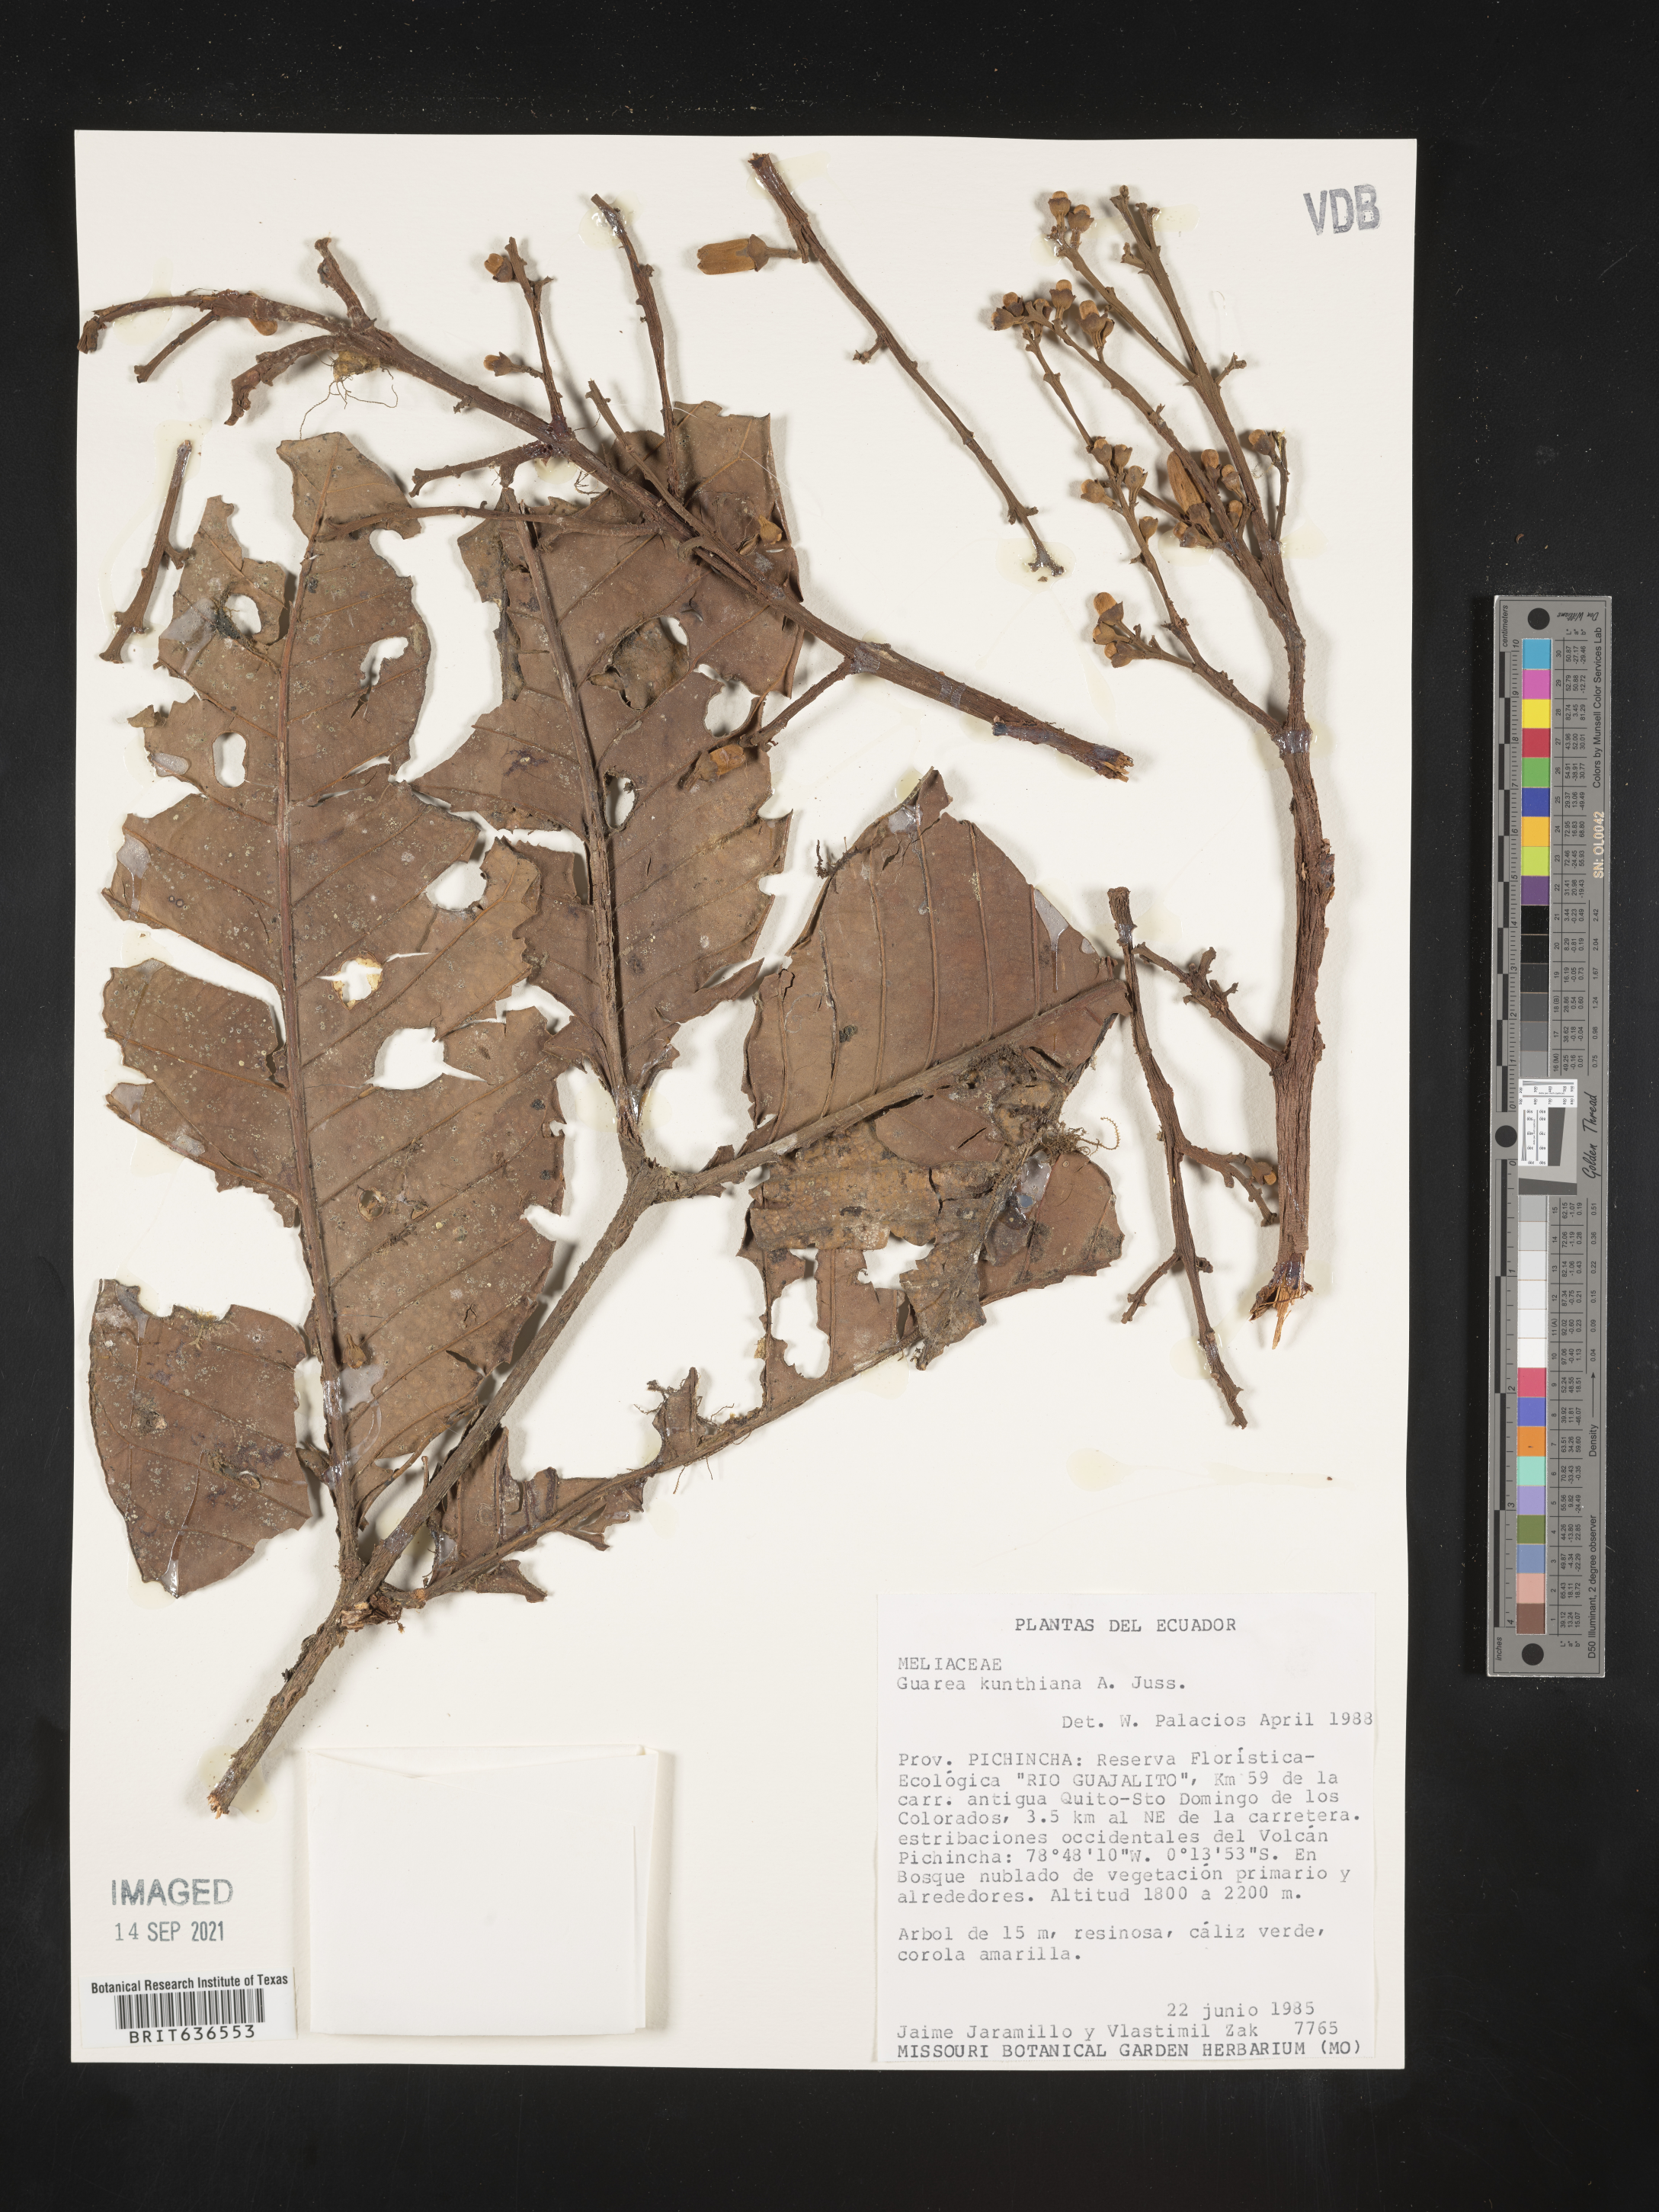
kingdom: Plantae
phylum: Tracheophyta
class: Magnoliopsida
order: Sapindales
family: Meliaceae
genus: Guarea
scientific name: Guarea
